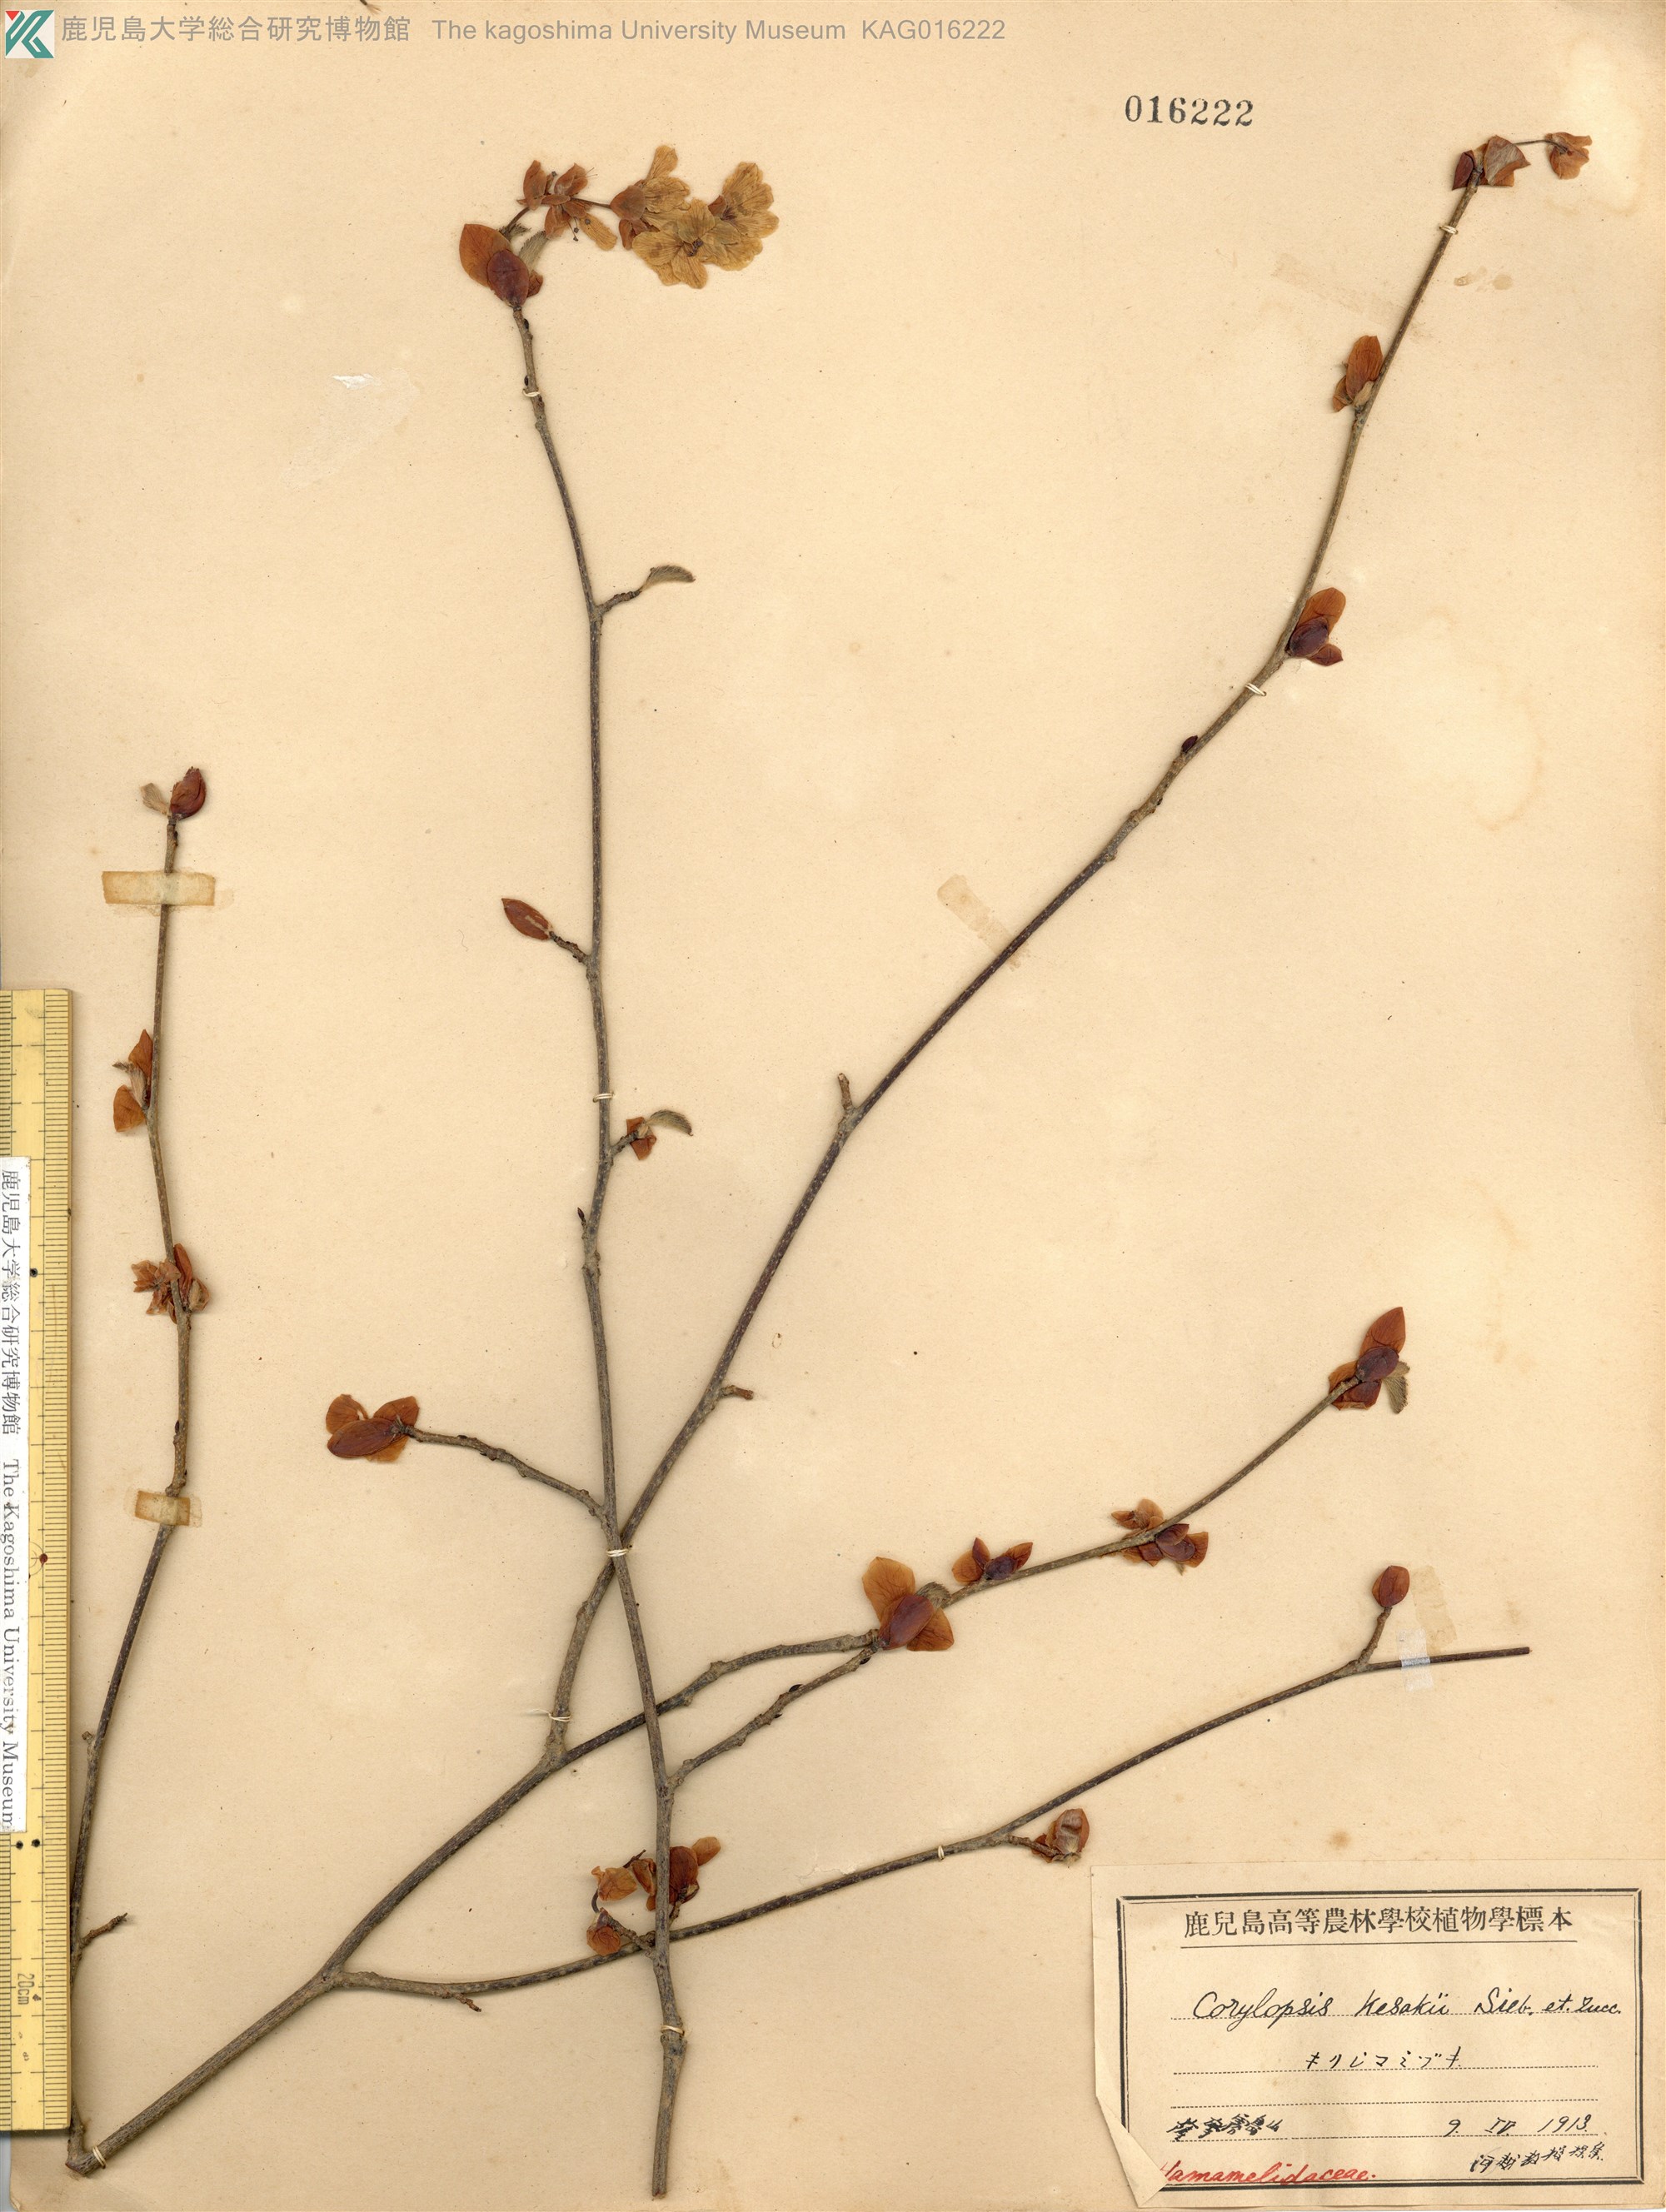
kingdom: Plantae
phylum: Tracheophyta
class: Magnoliopsida
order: Saxifragales
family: Hamamelidaceae
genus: Corylopsis
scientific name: Corylopsis glabrescens
